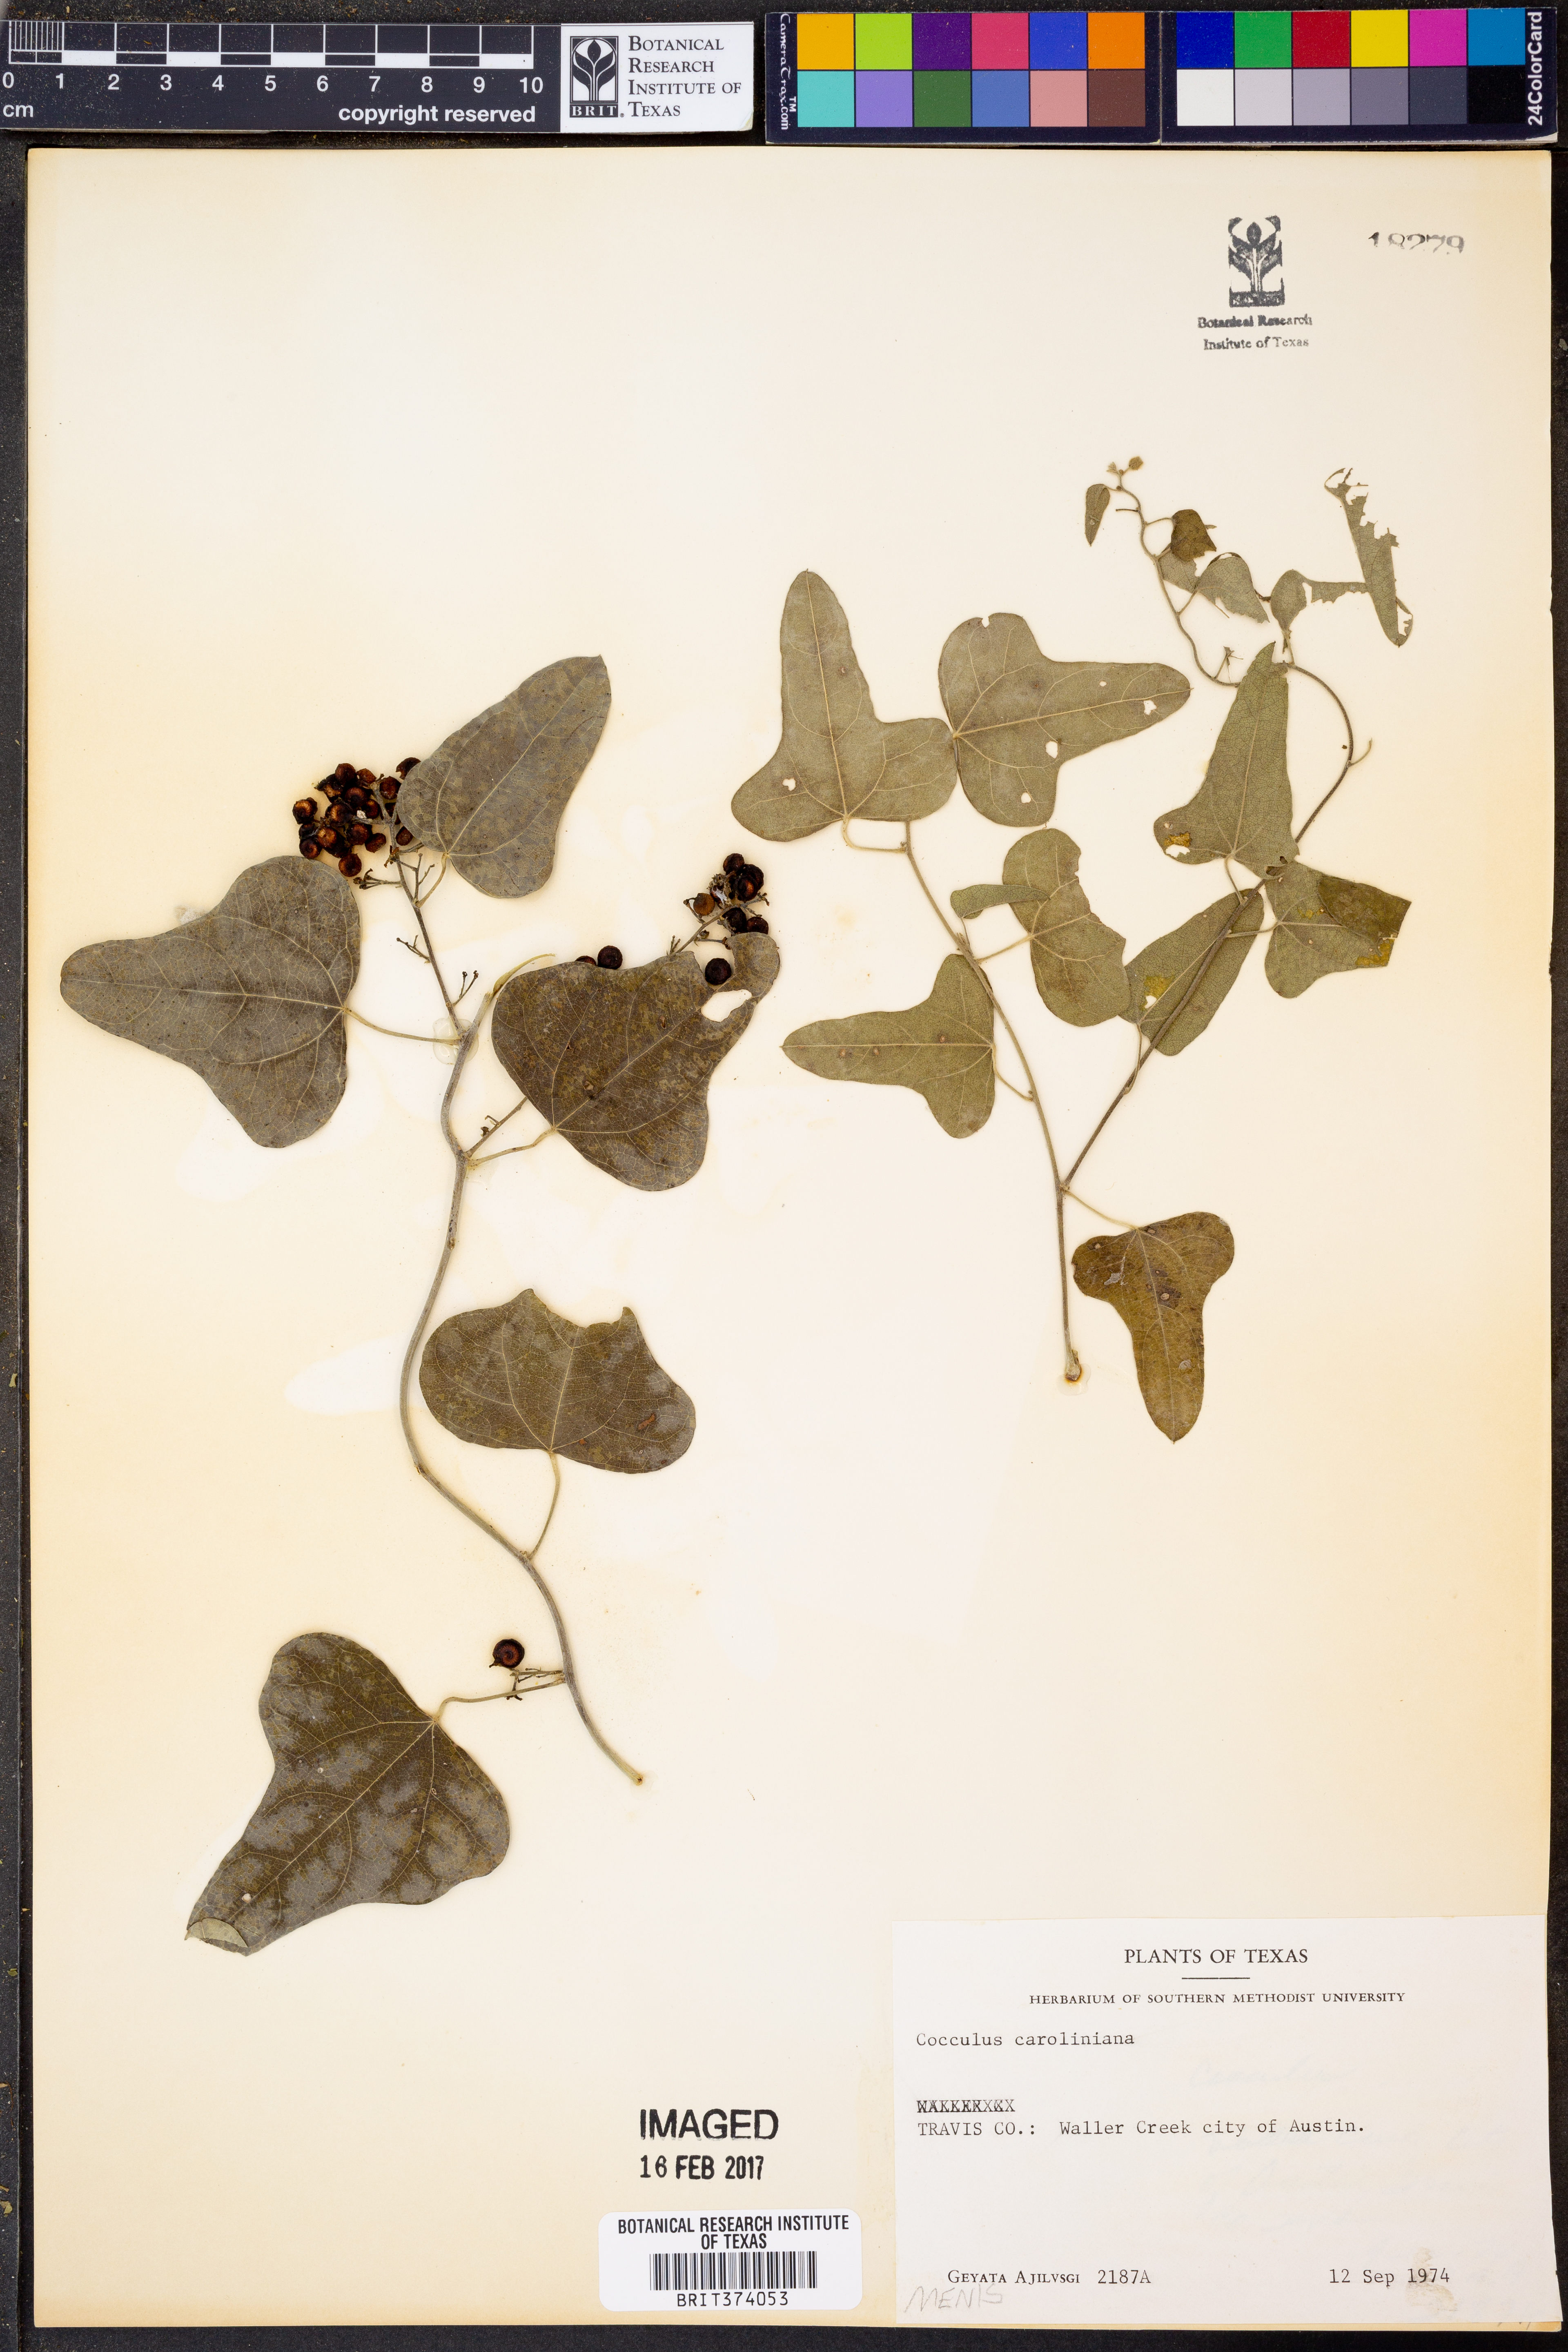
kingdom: Plantae
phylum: Tracheophyta
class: Magnoliopsida
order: Ranunculales
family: Menispermaceae
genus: Cocculus
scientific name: Cocculus carolinus
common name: Carolina moonseed
